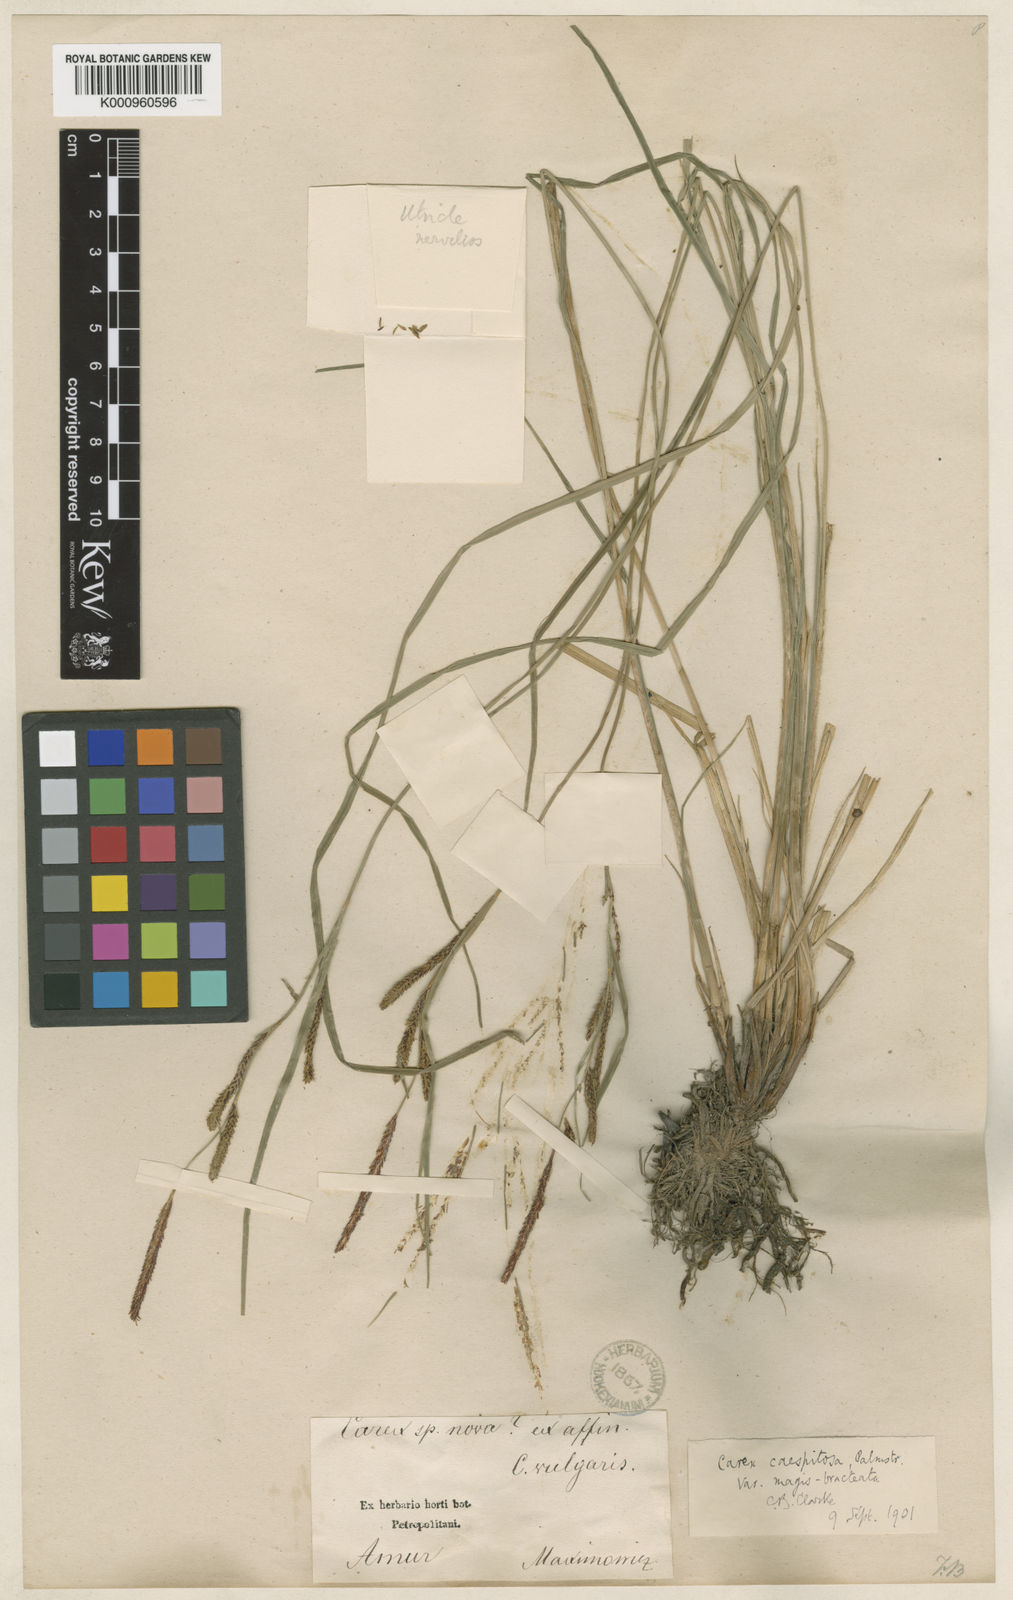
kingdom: Plantae
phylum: Tracheophyta
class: Liliopsida
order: Poales
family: Cyperaceae
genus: Carex
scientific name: Carex cespitosa
